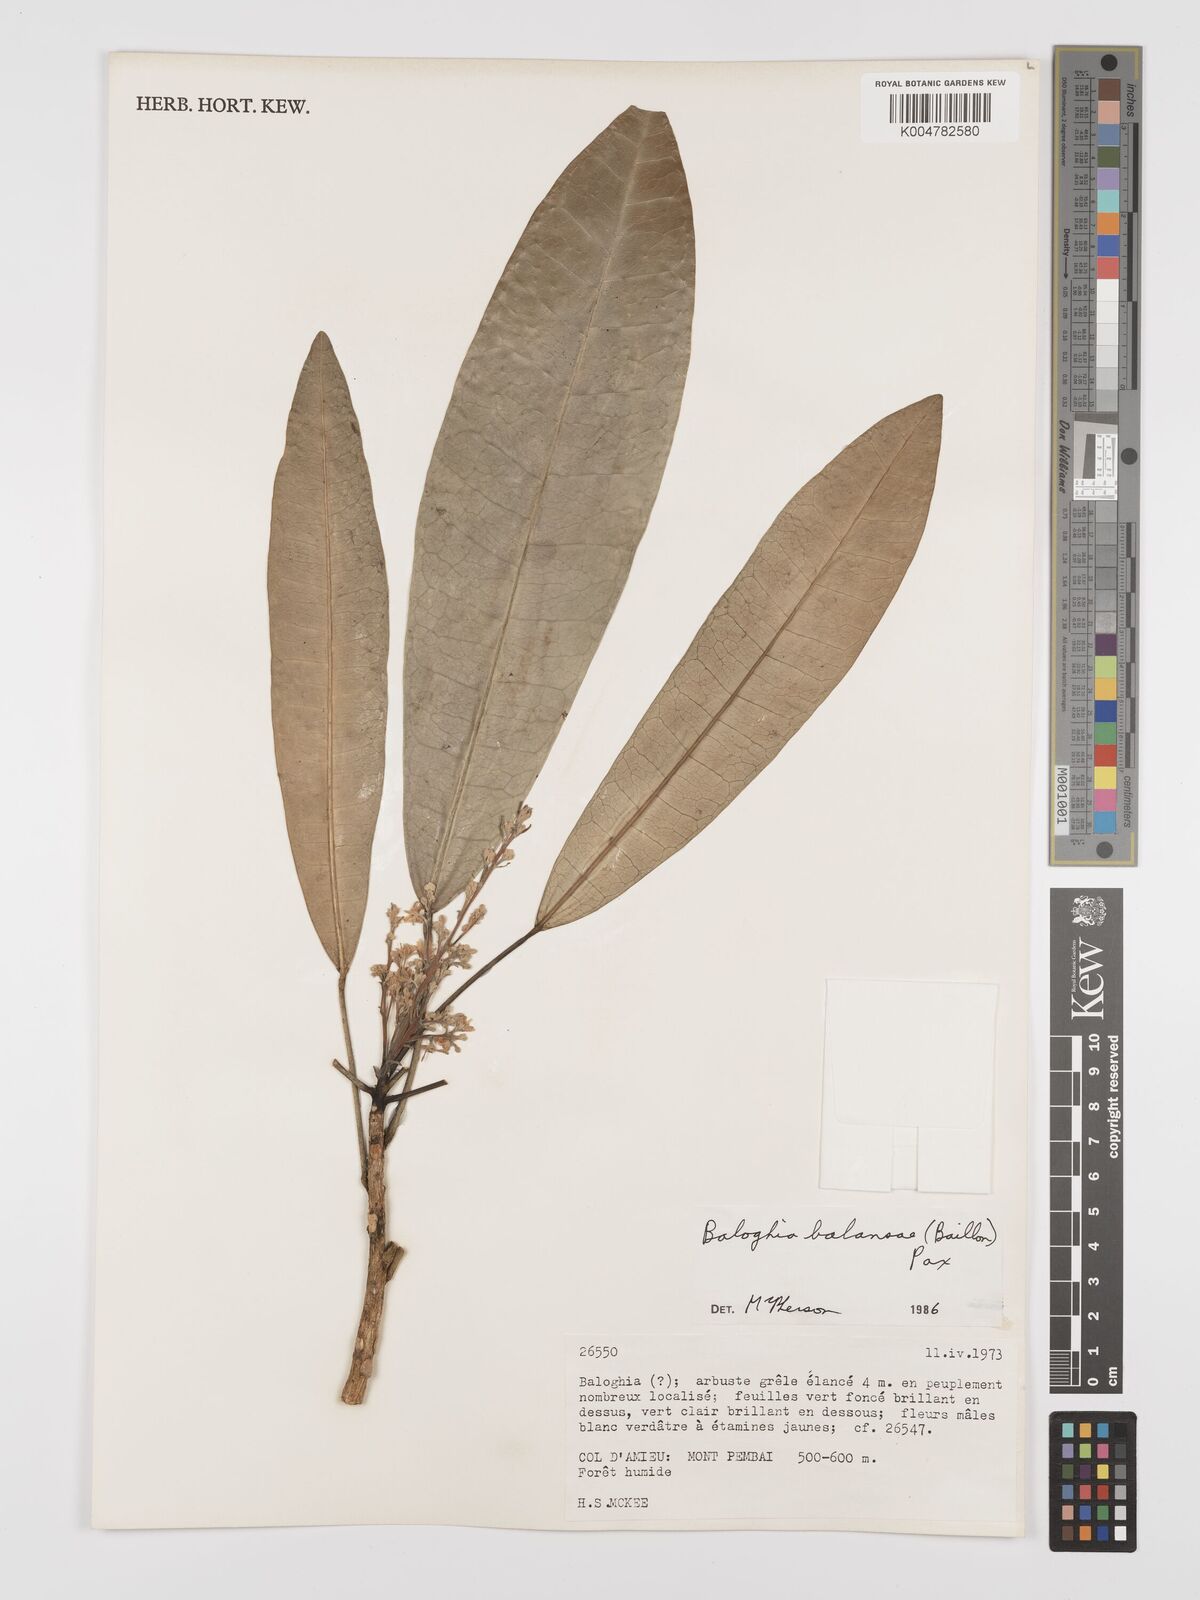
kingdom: Plantae
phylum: Tracheophyta
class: Magnoliopsida
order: Malpighiales
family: Euphorbiaceae
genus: Baloghia
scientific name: Baloghia balansae
